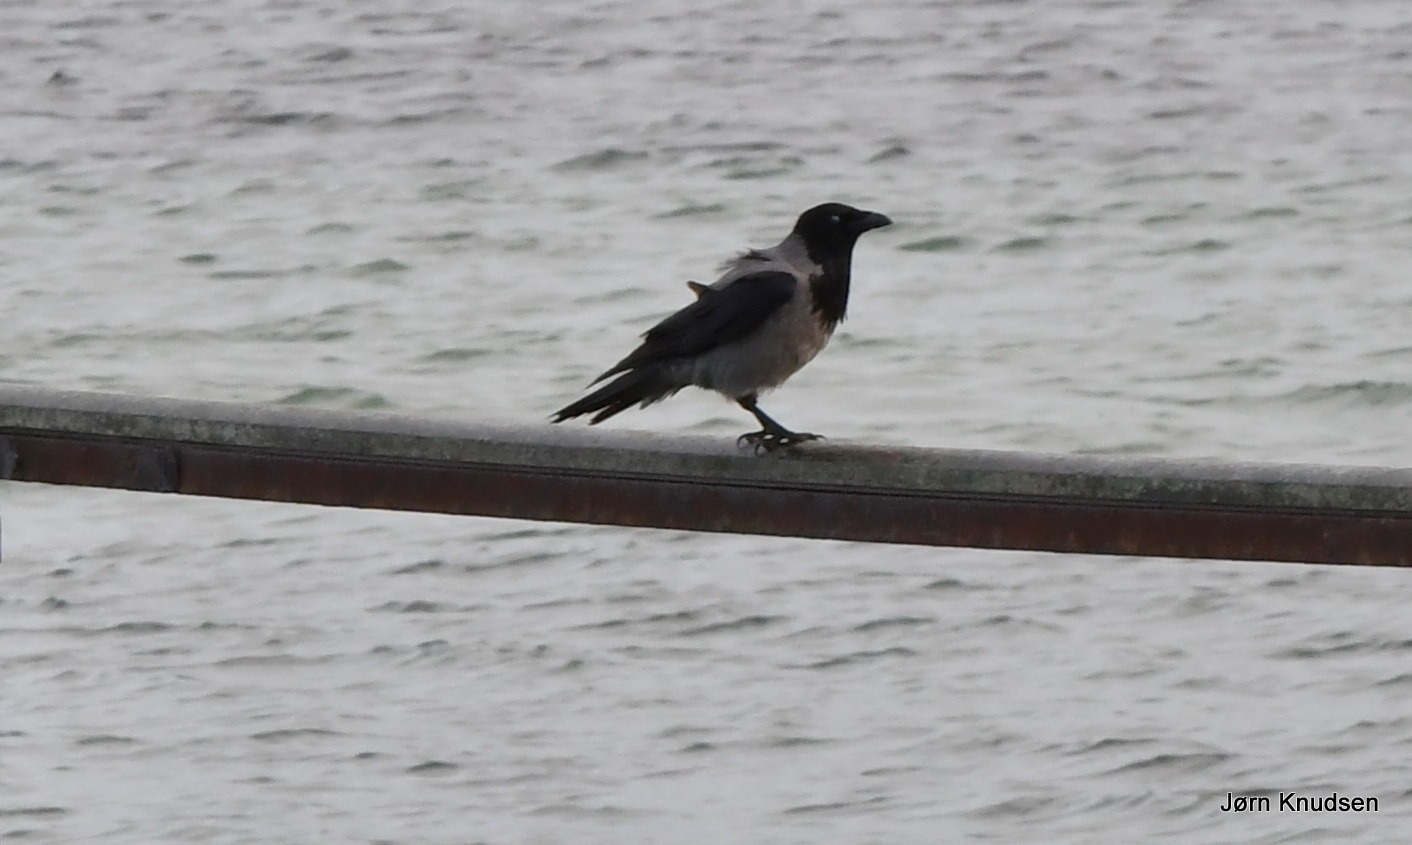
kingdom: Animalia
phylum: Chordata
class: Aves
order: Passeriformes
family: Corvidae
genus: Corvus
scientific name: Corvus cornix
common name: Gråkrage
